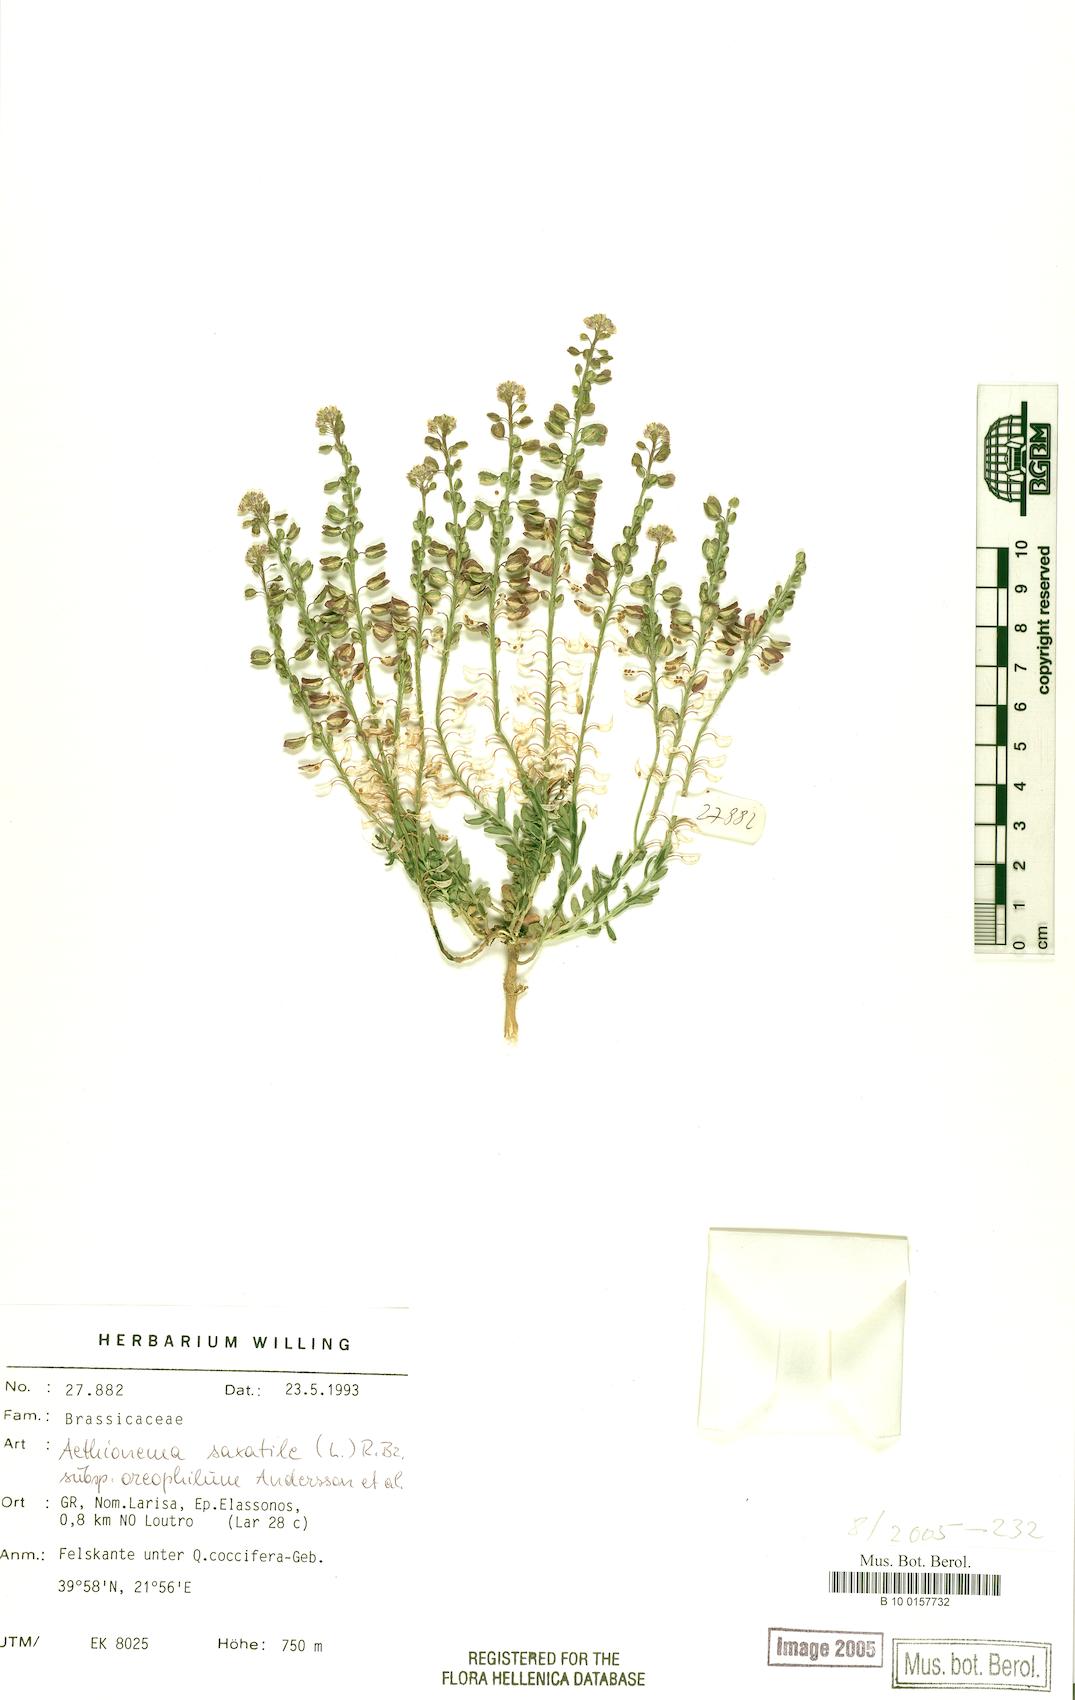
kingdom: Plantae
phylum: Tracheophyta
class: Magnoliopsida
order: Brassicales
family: Brassicaceae
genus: Aethionema
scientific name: Aethionema saxatile
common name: Burnt candytuft
